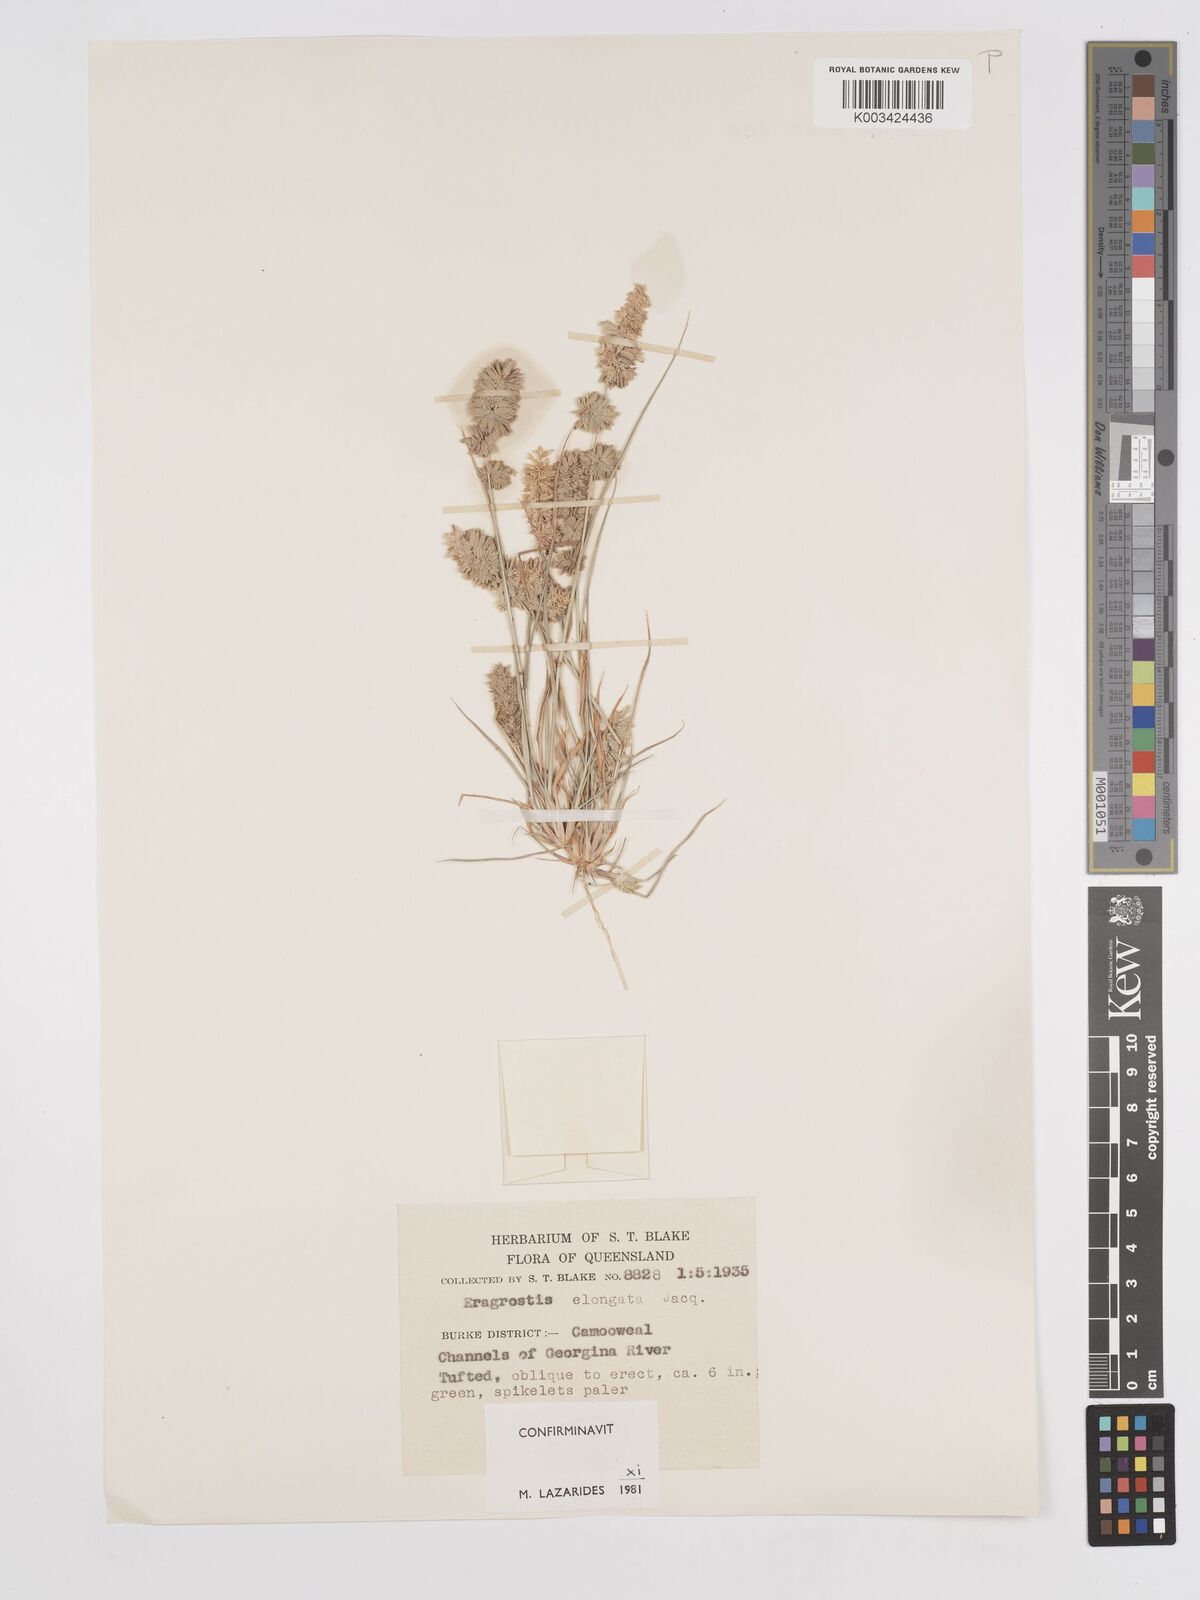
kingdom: Plantae
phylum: Tracheophyta
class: Liliopsida
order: Poales
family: Poaceae
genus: Eragrostis
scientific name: Eragrostis elongata
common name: Long lovegrass
